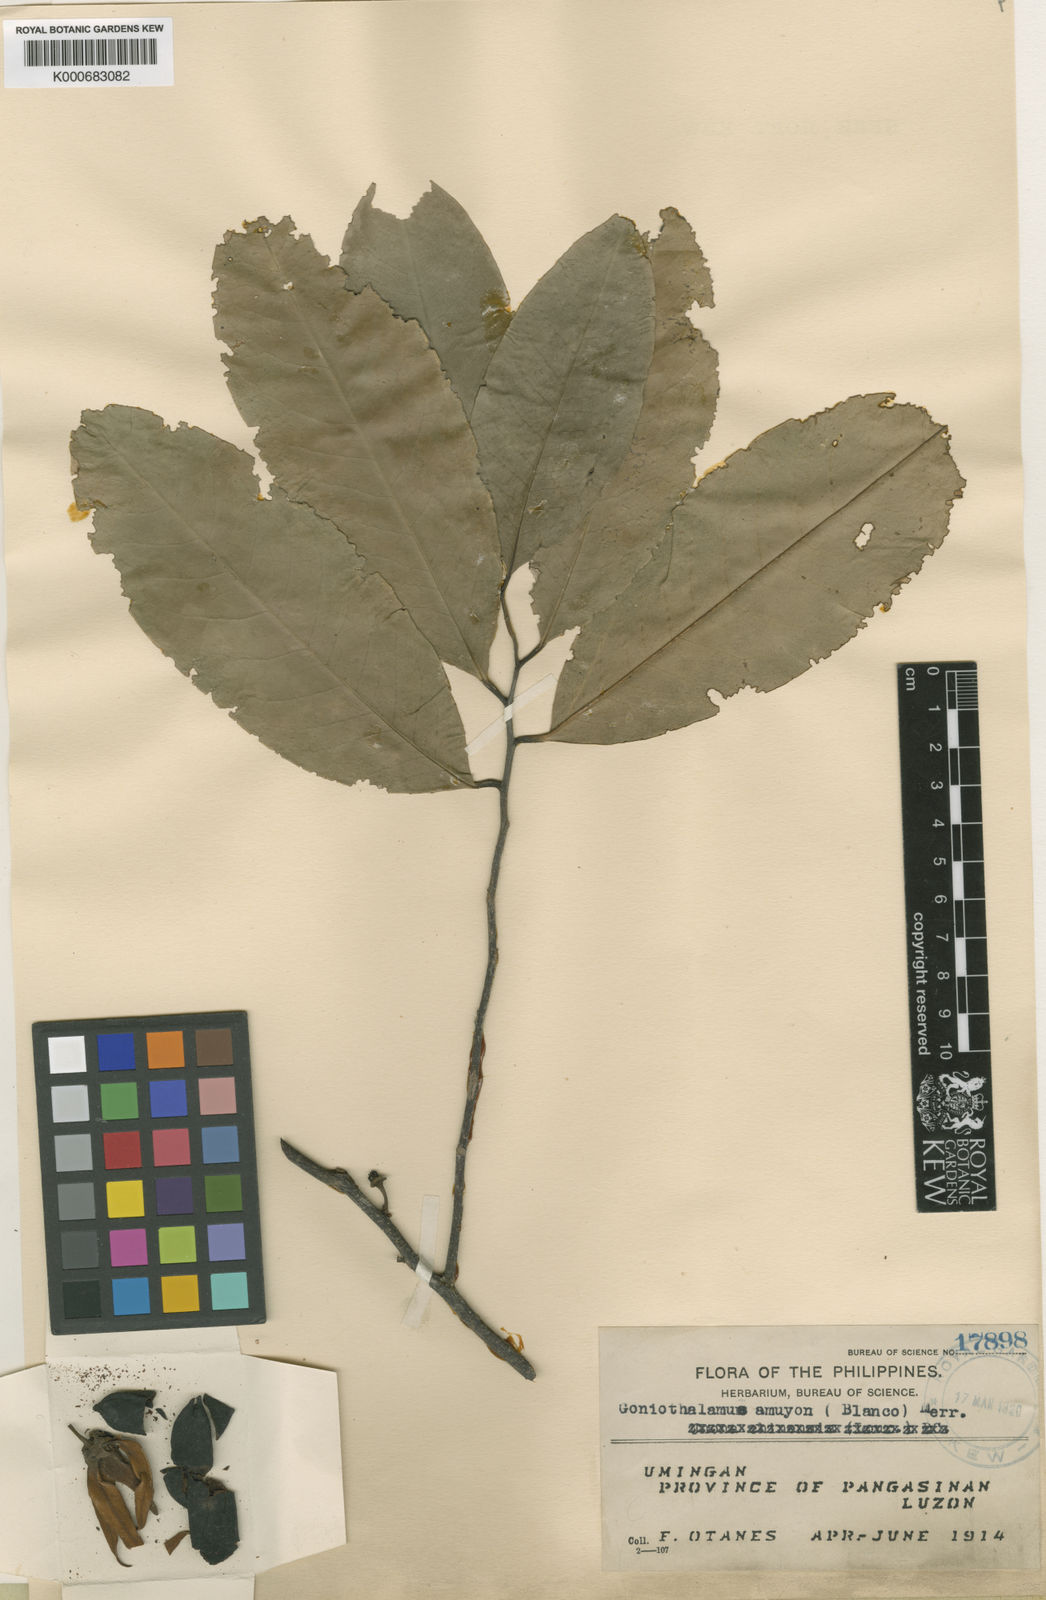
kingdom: Plantae
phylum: Tracheophyta
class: Magnoliopsida
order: Magnoliales
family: Annonaceae
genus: Goniothalamus
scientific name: Goniothalamus amuyon
